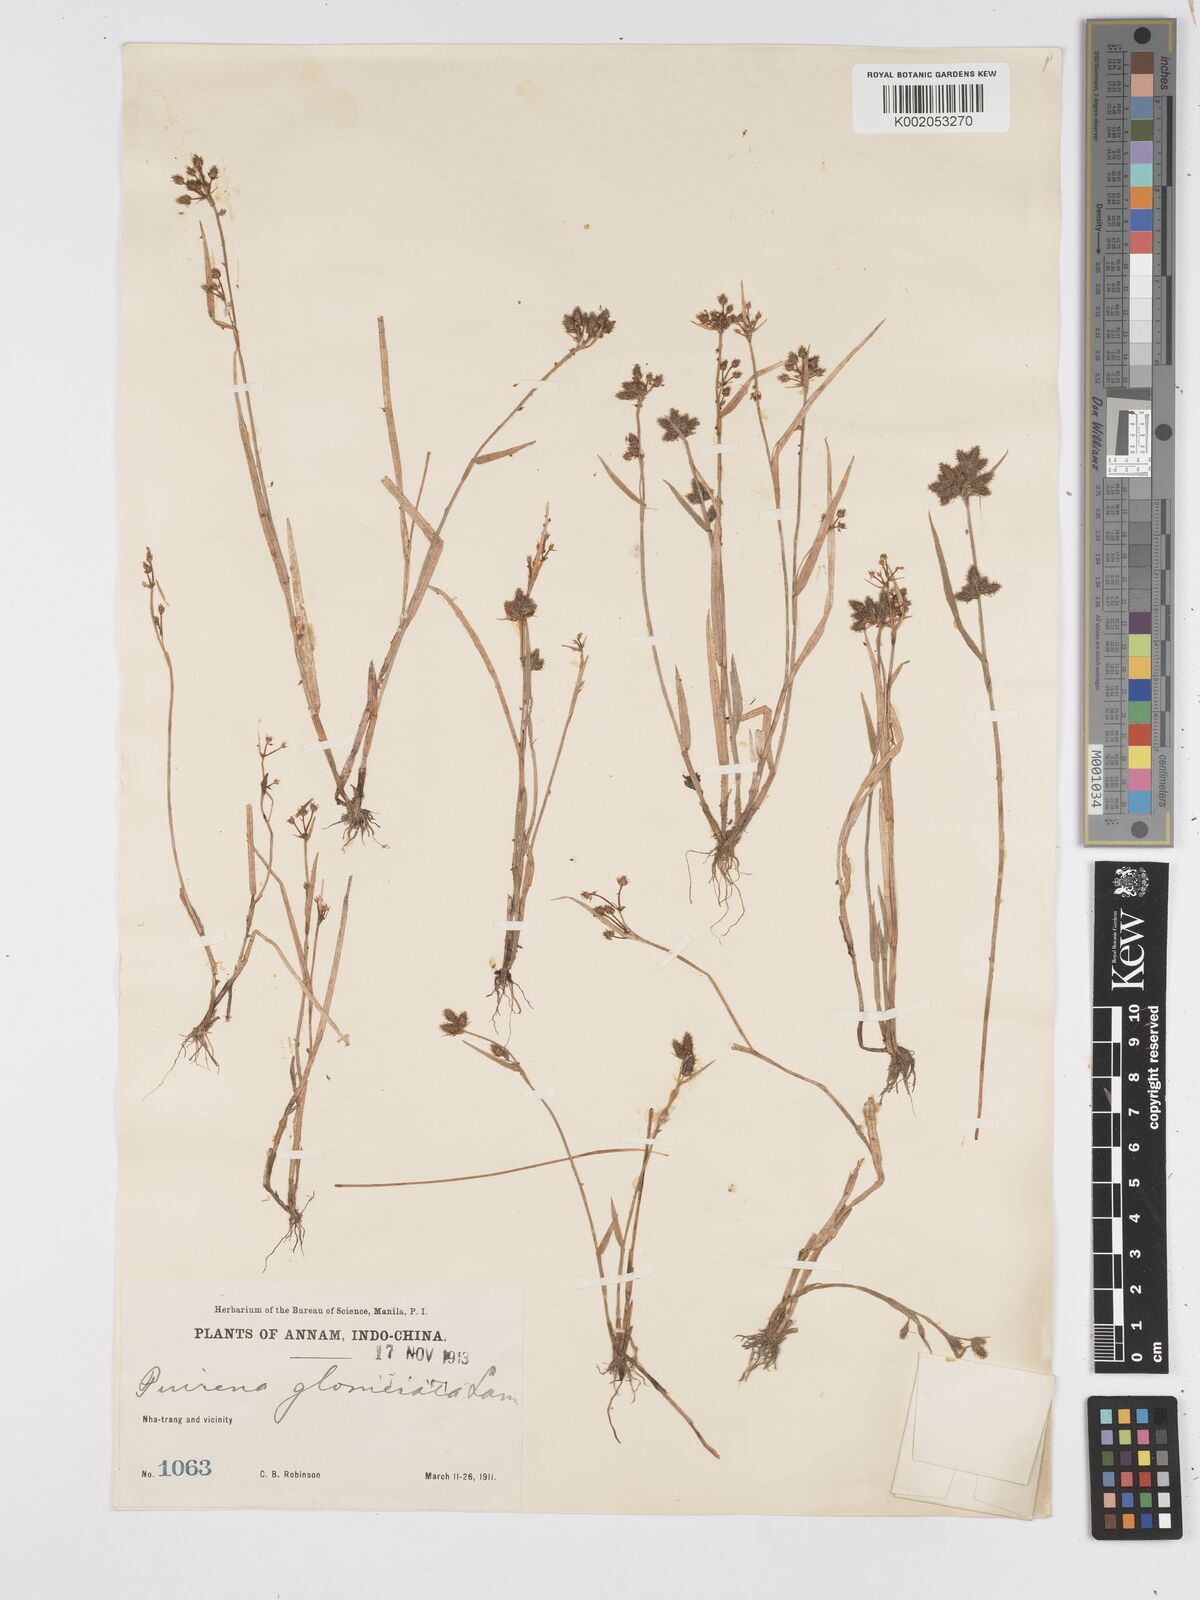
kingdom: Plantae
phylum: Tracheophyta
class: Liliopsida
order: Poales
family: Cyperaceae
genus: Fuirena
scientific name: Fuirena ciliaris
